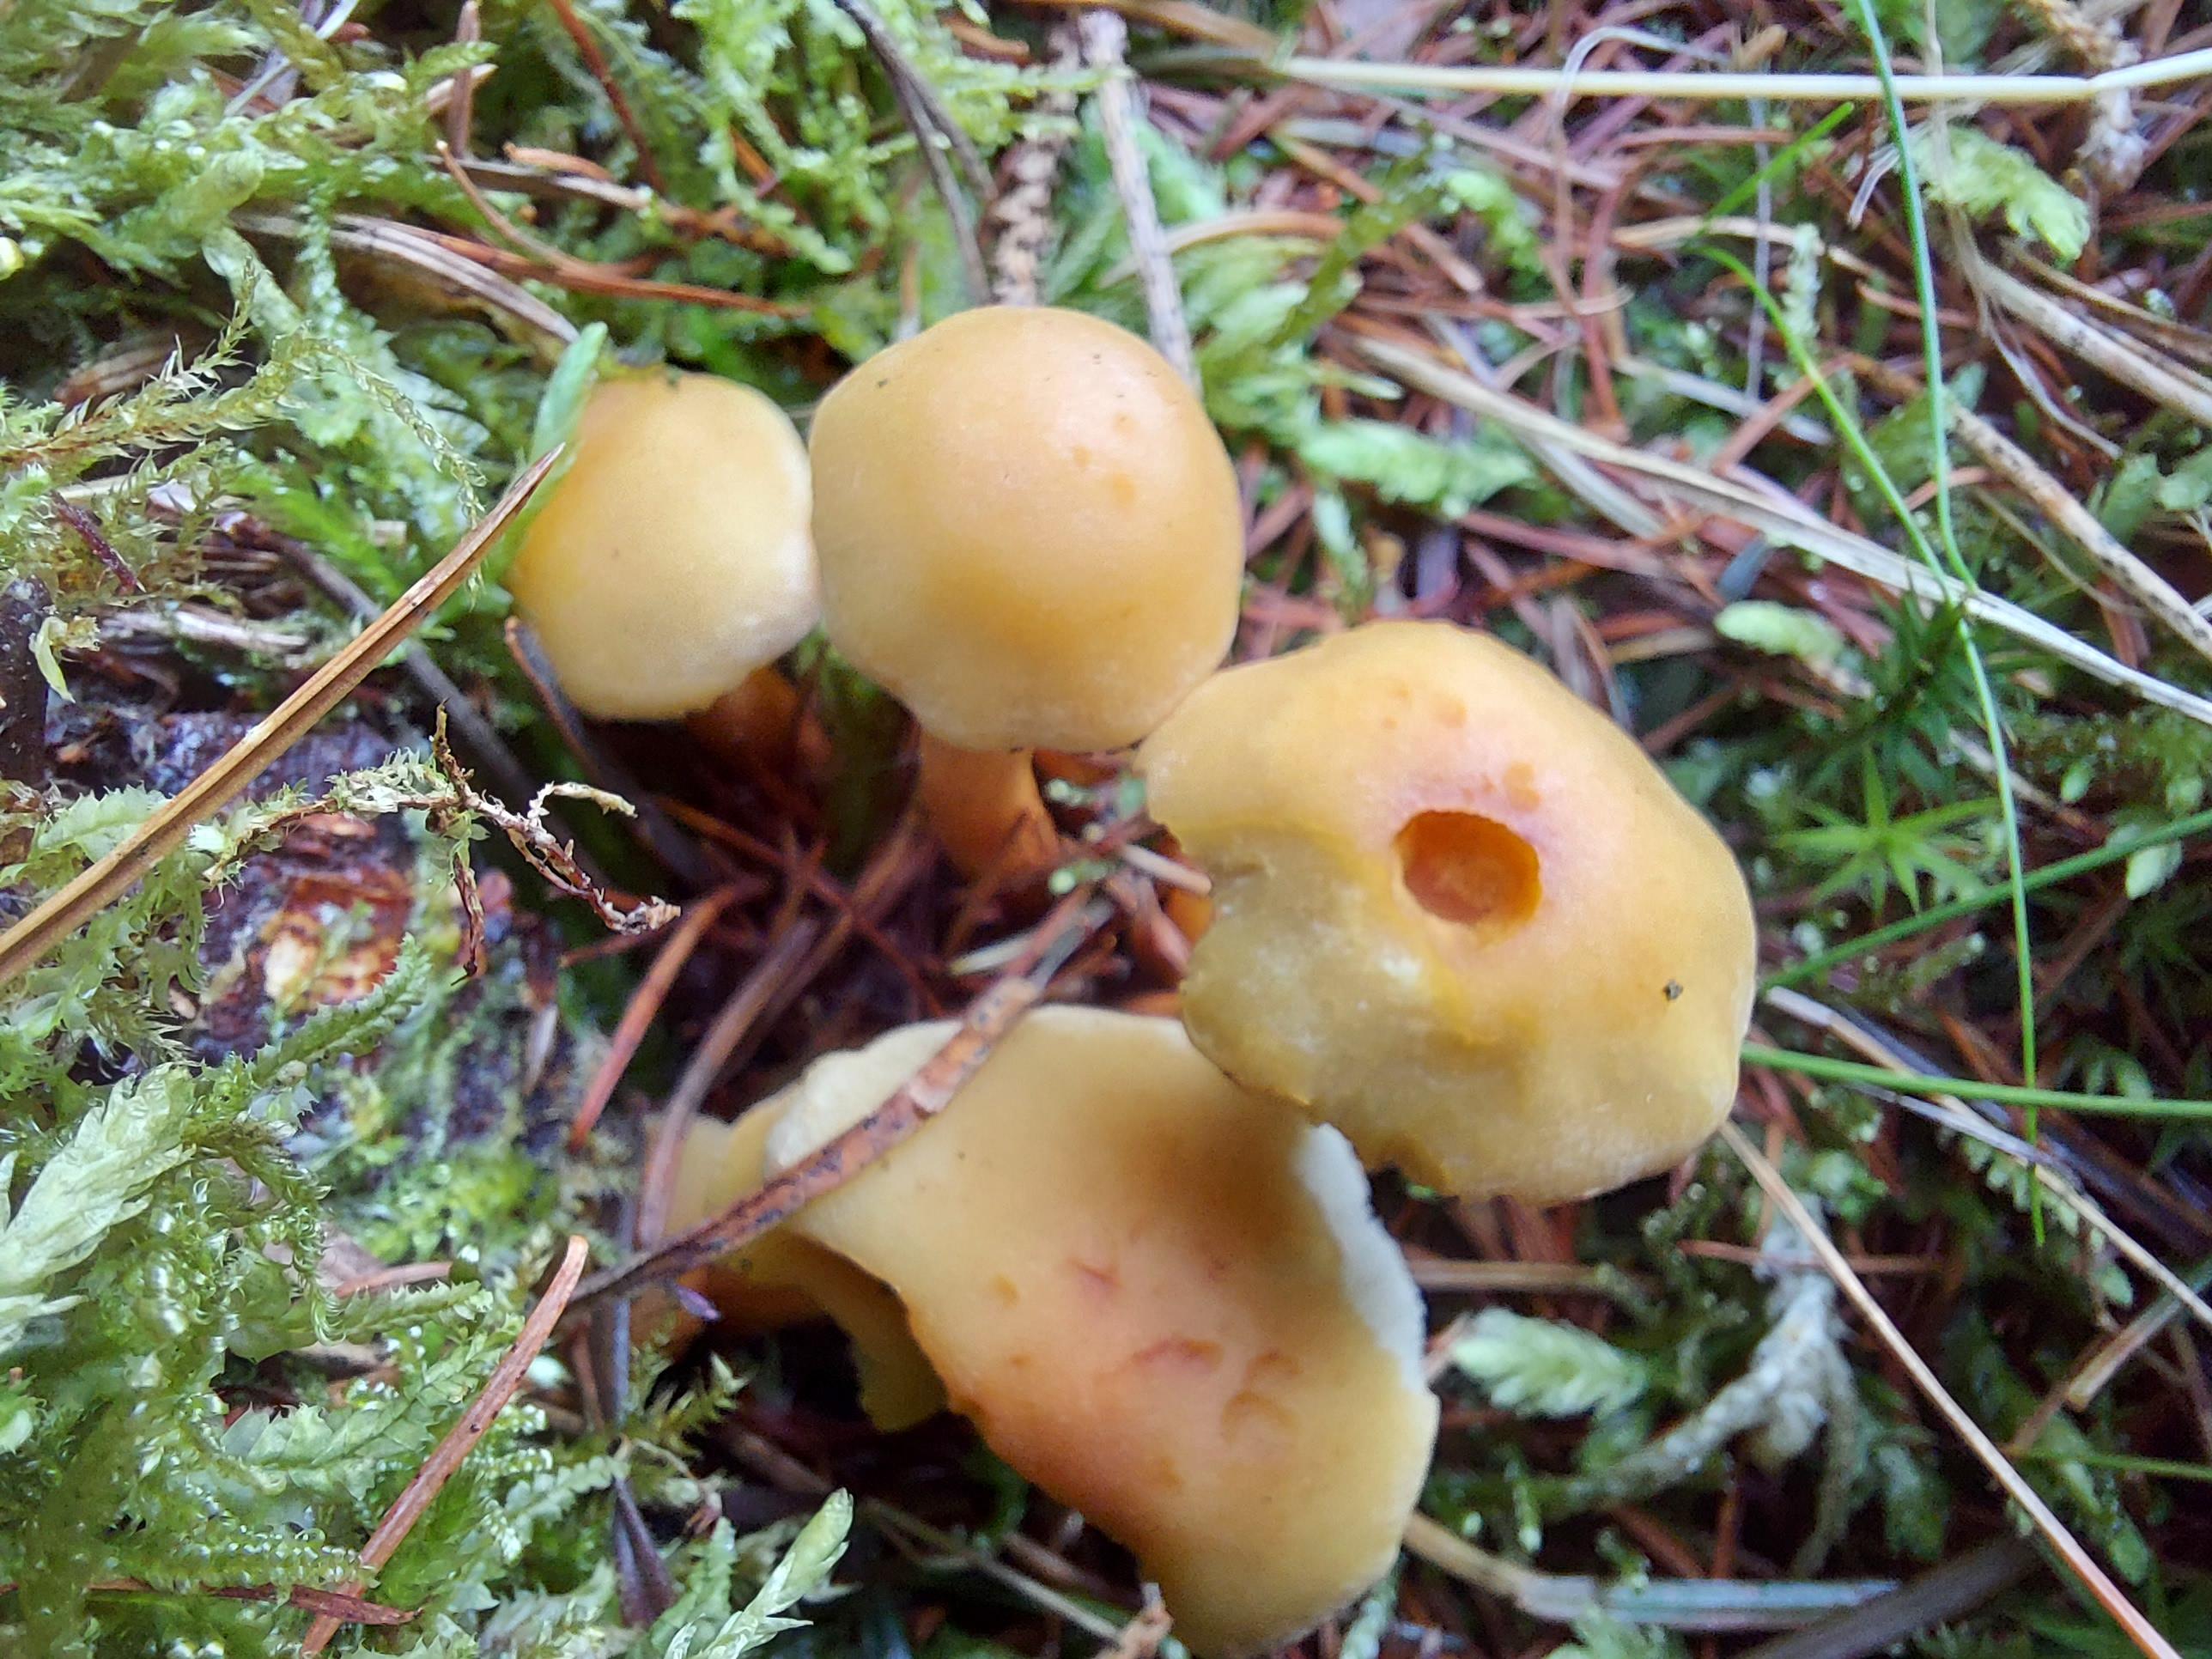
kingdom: Fungi
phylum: Basidiomycota
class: Agaricomycetes
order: Agaricales
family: Strophariaceae
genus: Hypholoma
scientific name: Hypholoma capnoides
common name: gran-svovlhat
